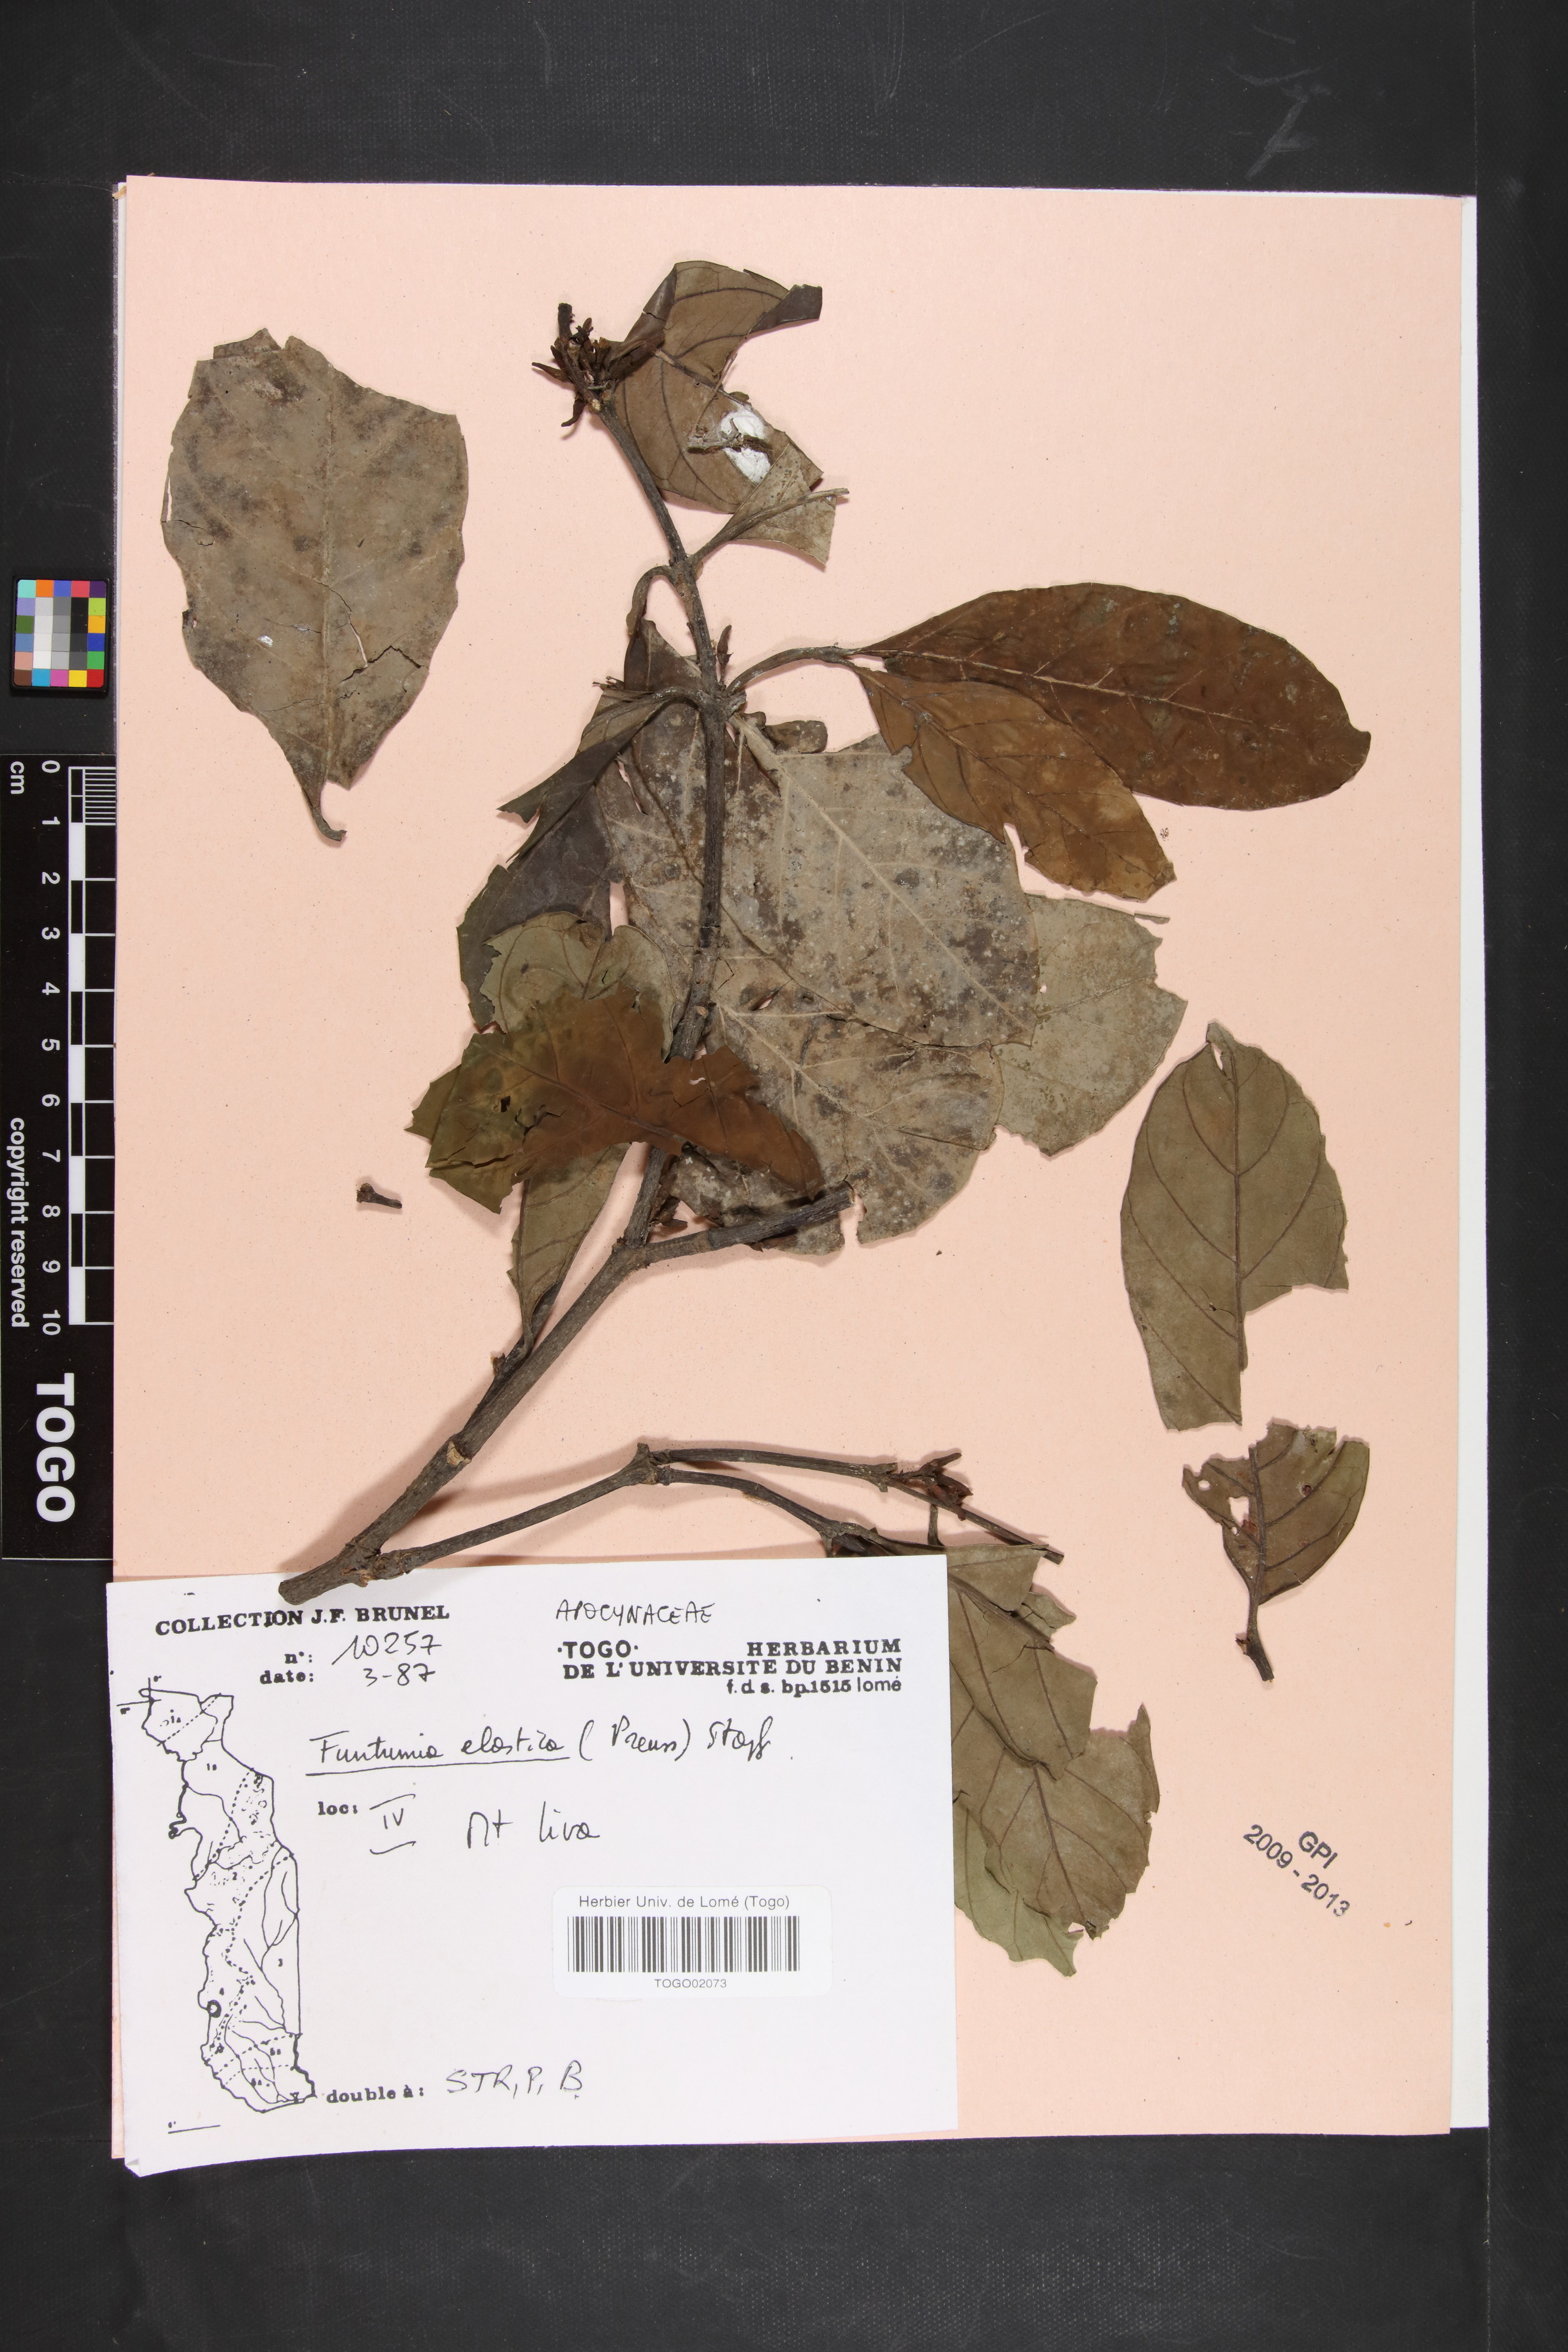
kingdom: Plantae
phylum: Tracheophyta
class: Magnoliopsida
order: Gentianales
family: Apocynaceae
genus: Funtumia
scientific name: Funtumia elastica
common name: Silkrubber
